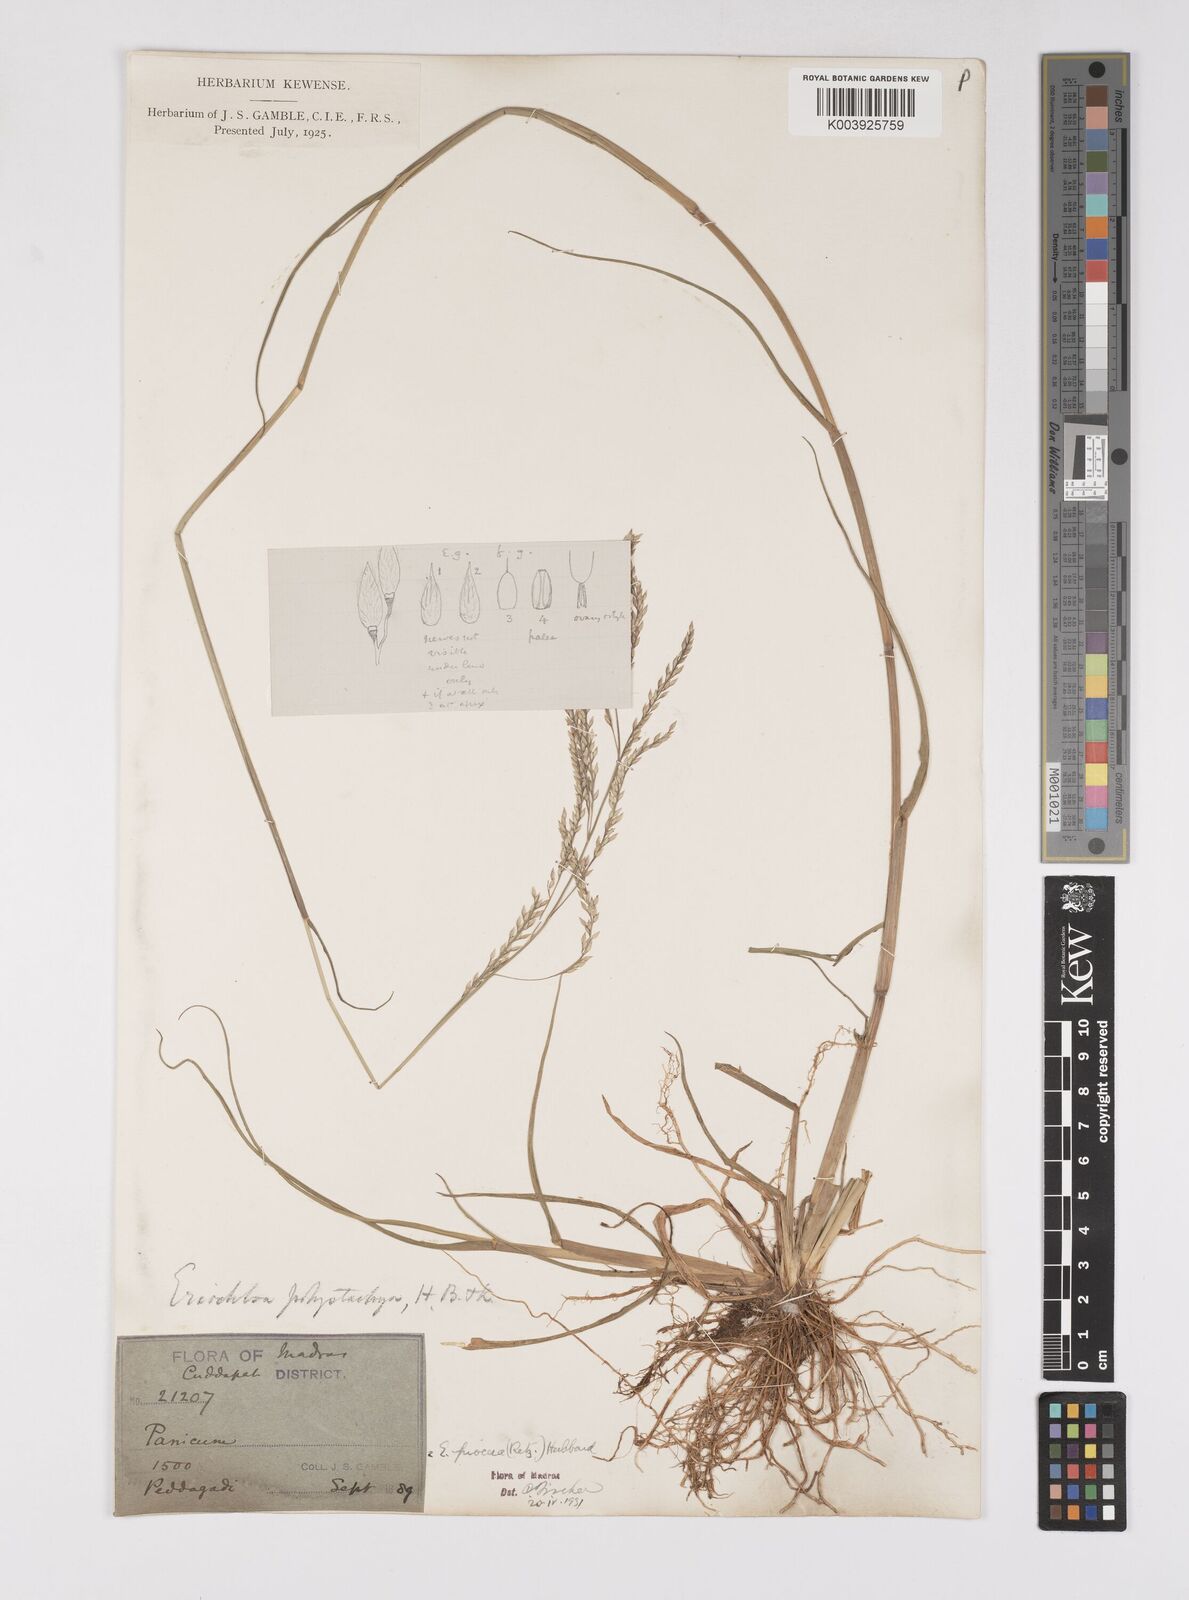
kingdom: Plantae
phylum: Tracheophyta
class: Liliopsida
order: Poales
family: Poaceae
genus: Eriochloa
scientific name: Eriochloa procera
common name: Spring grass
